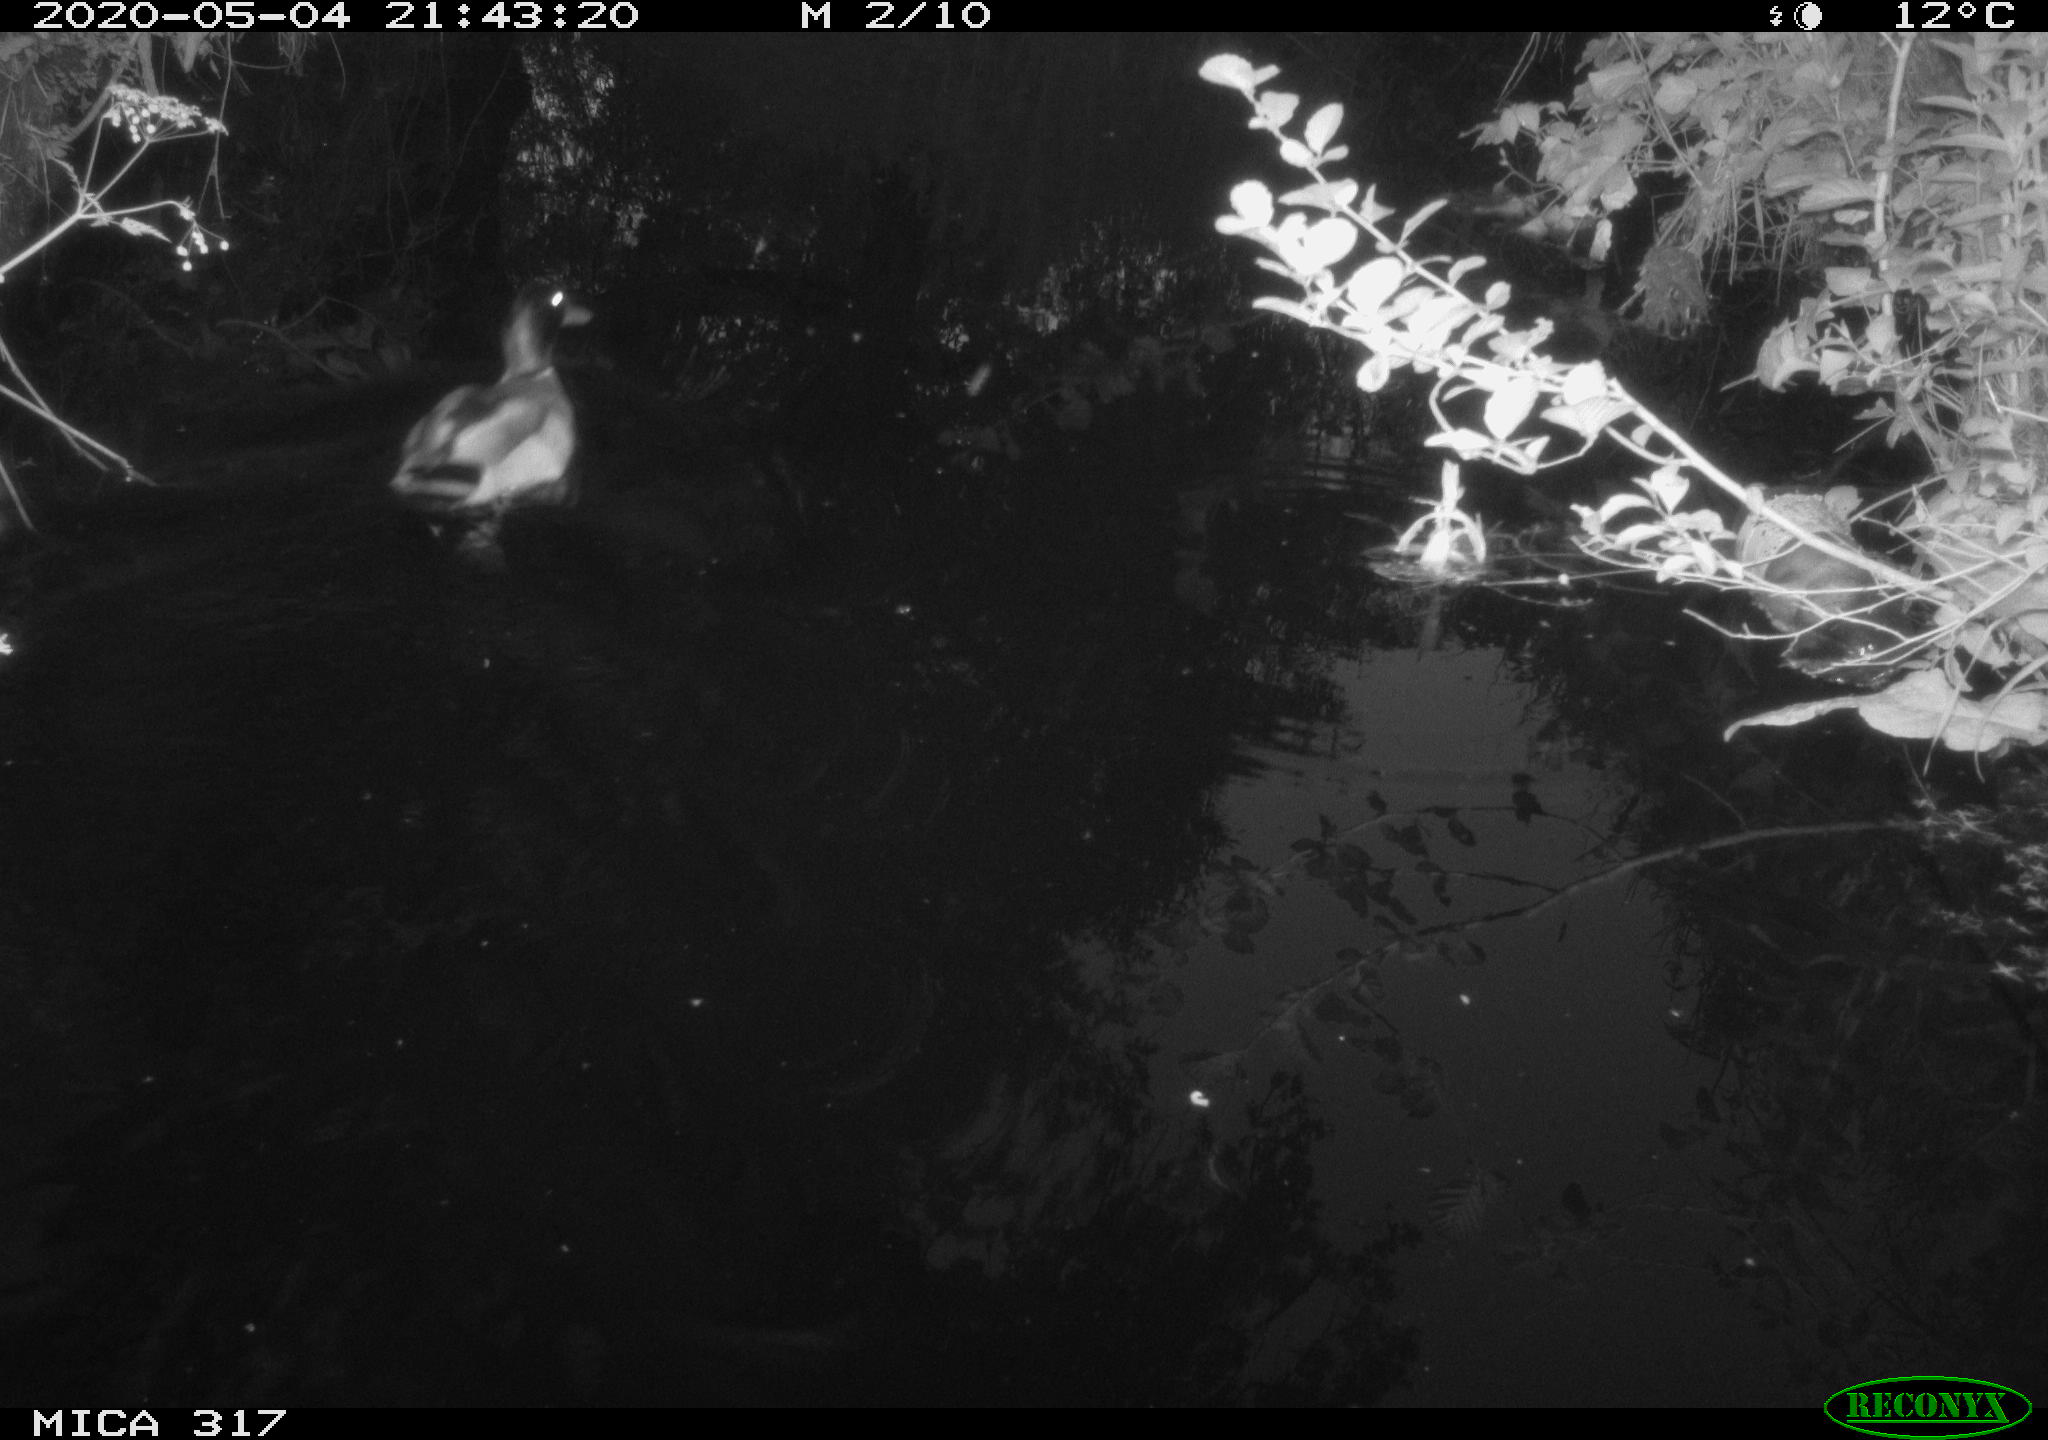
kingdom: Animalia
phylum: Chordata
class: Aves
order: Anseriformes
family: Anatidae
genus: Anas
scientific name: Anas platyrhynchos
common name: Mallard
